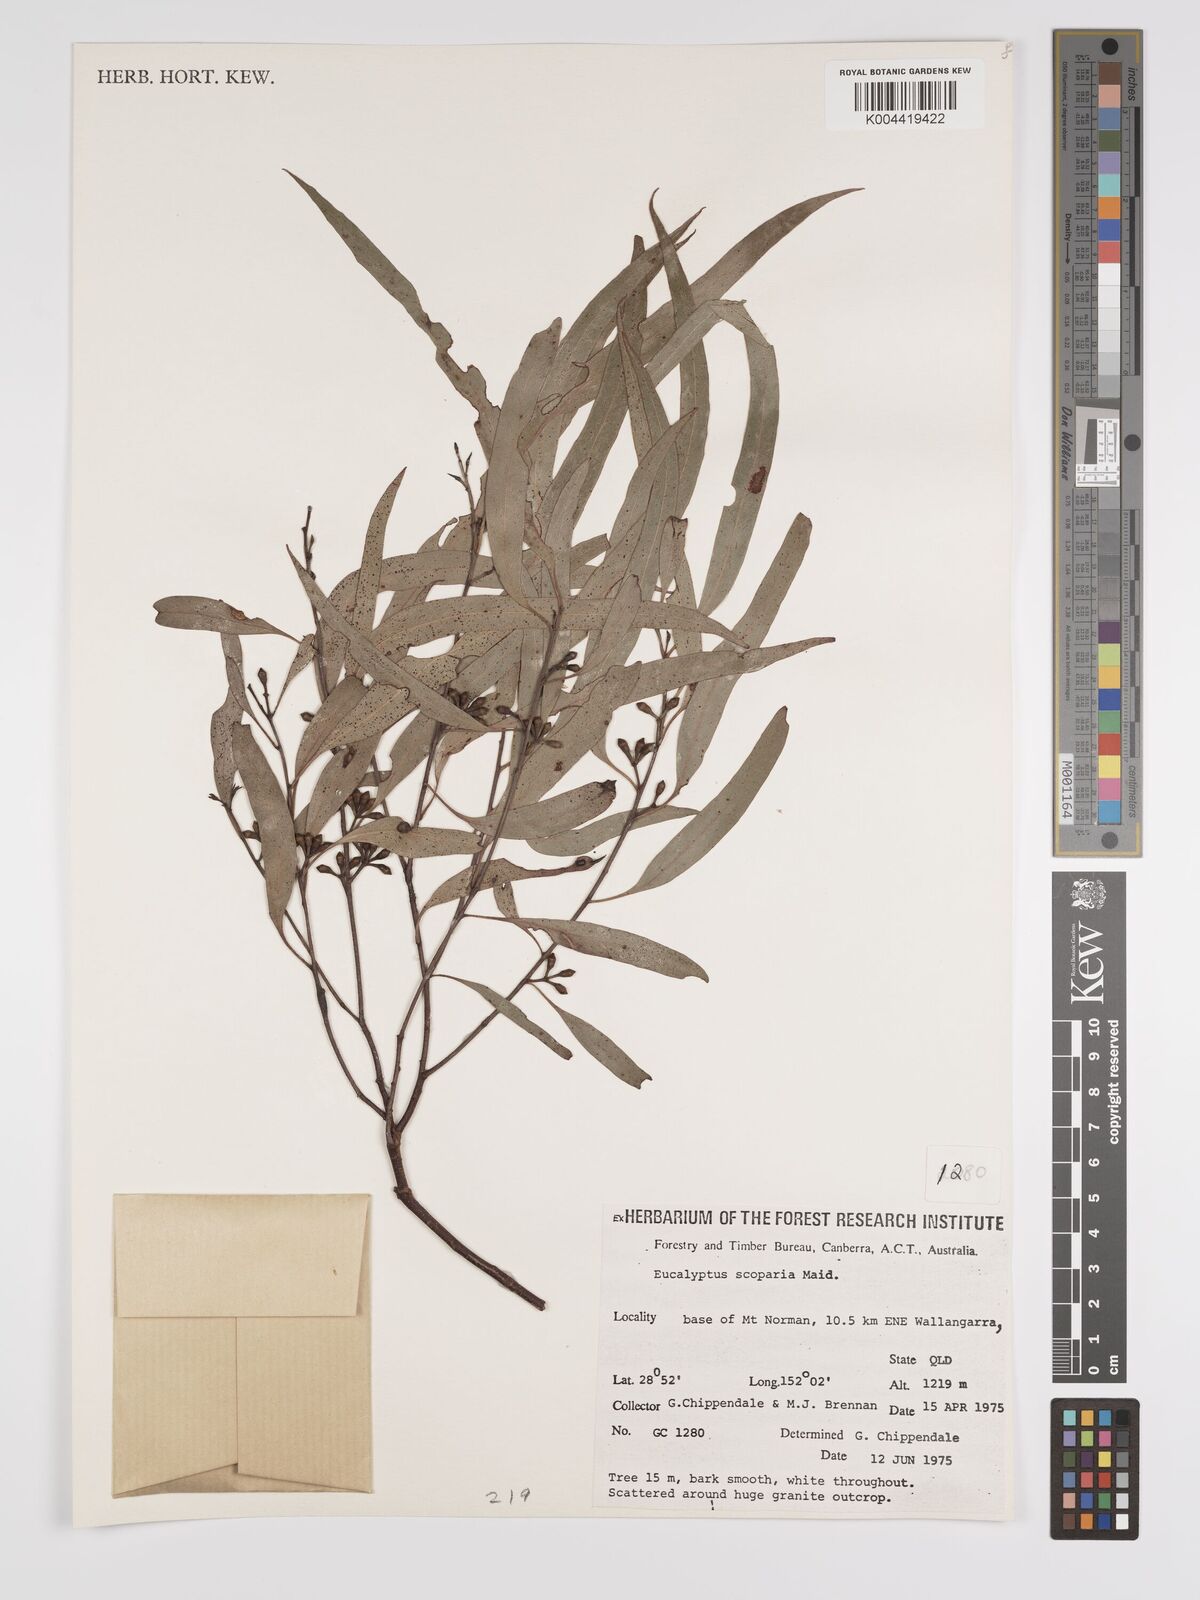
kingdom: Plantae
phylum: Tracheophyta
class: Magnoliopsida
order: Myrtales
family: Myrtaceae
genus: Eucalyptus
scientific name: Eucalyptus scoparia
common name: Wallangarra white gum
